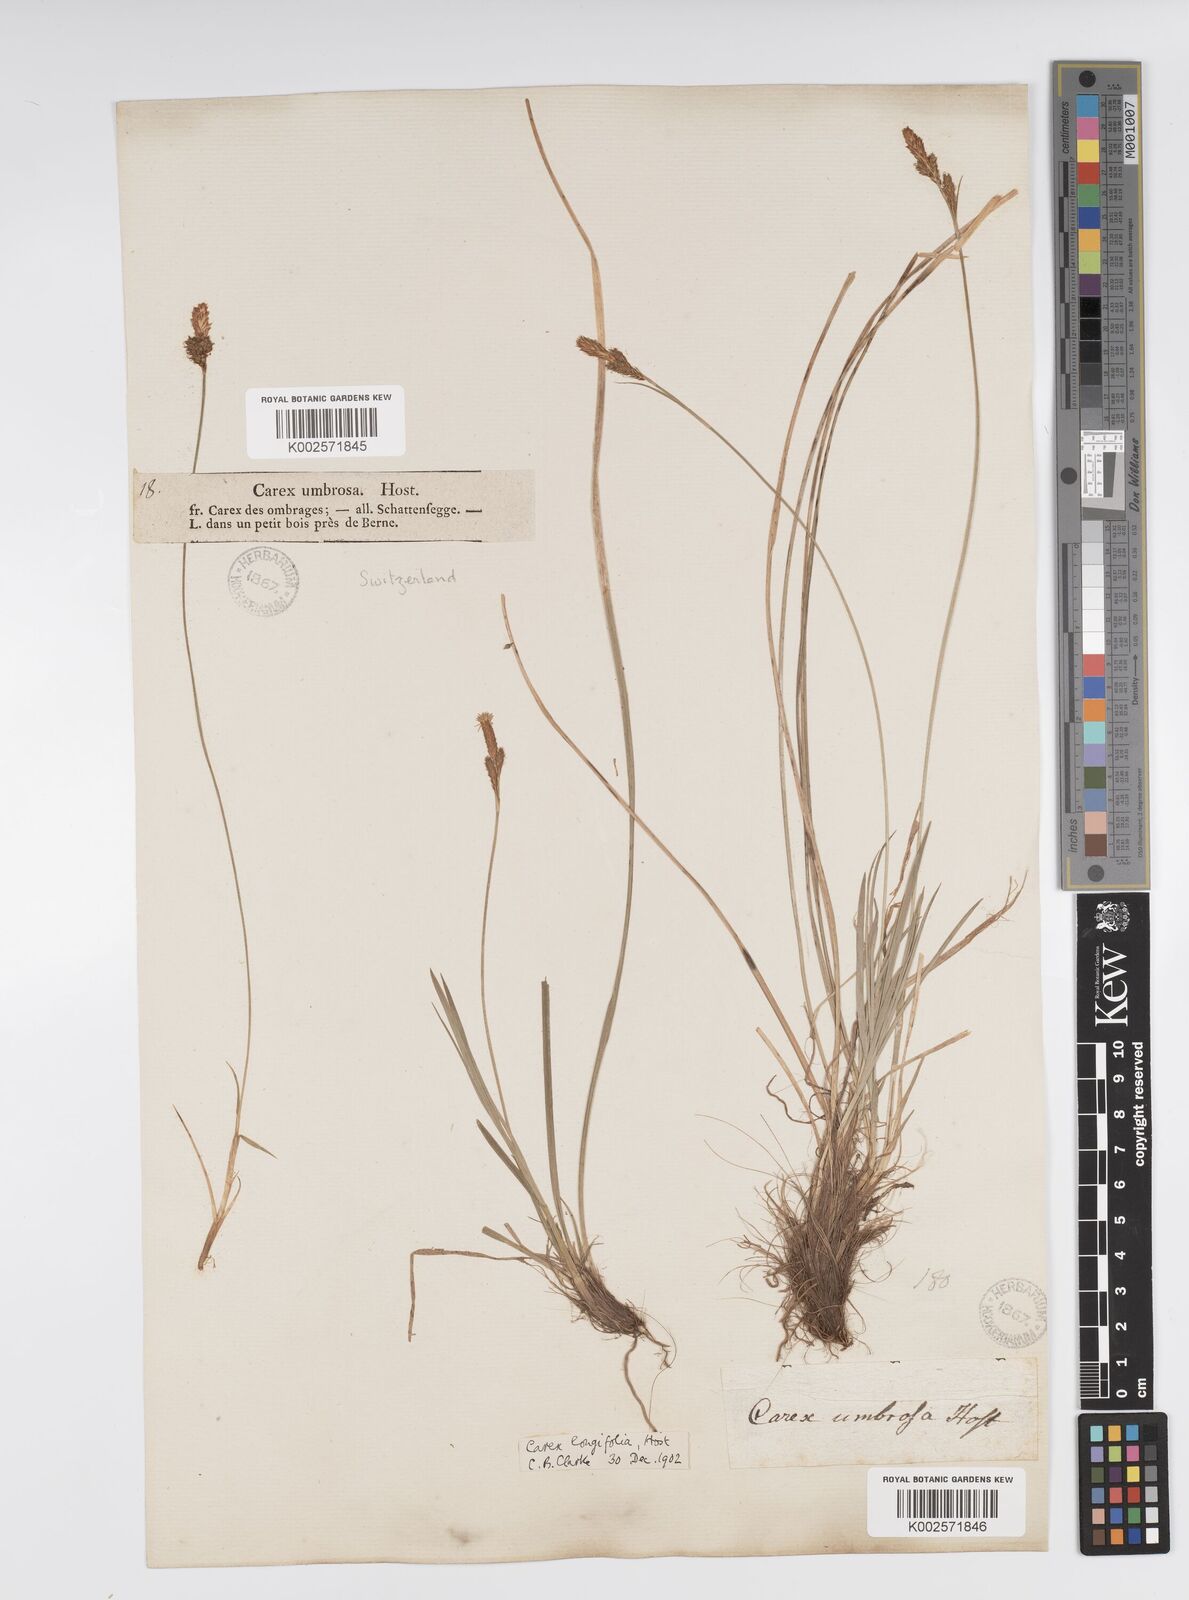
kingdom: Plantae
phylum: Tracheophyta
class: Liliopsida
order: Poales
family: Cyperaceae
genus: Carex
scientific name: Carex umbrosa
